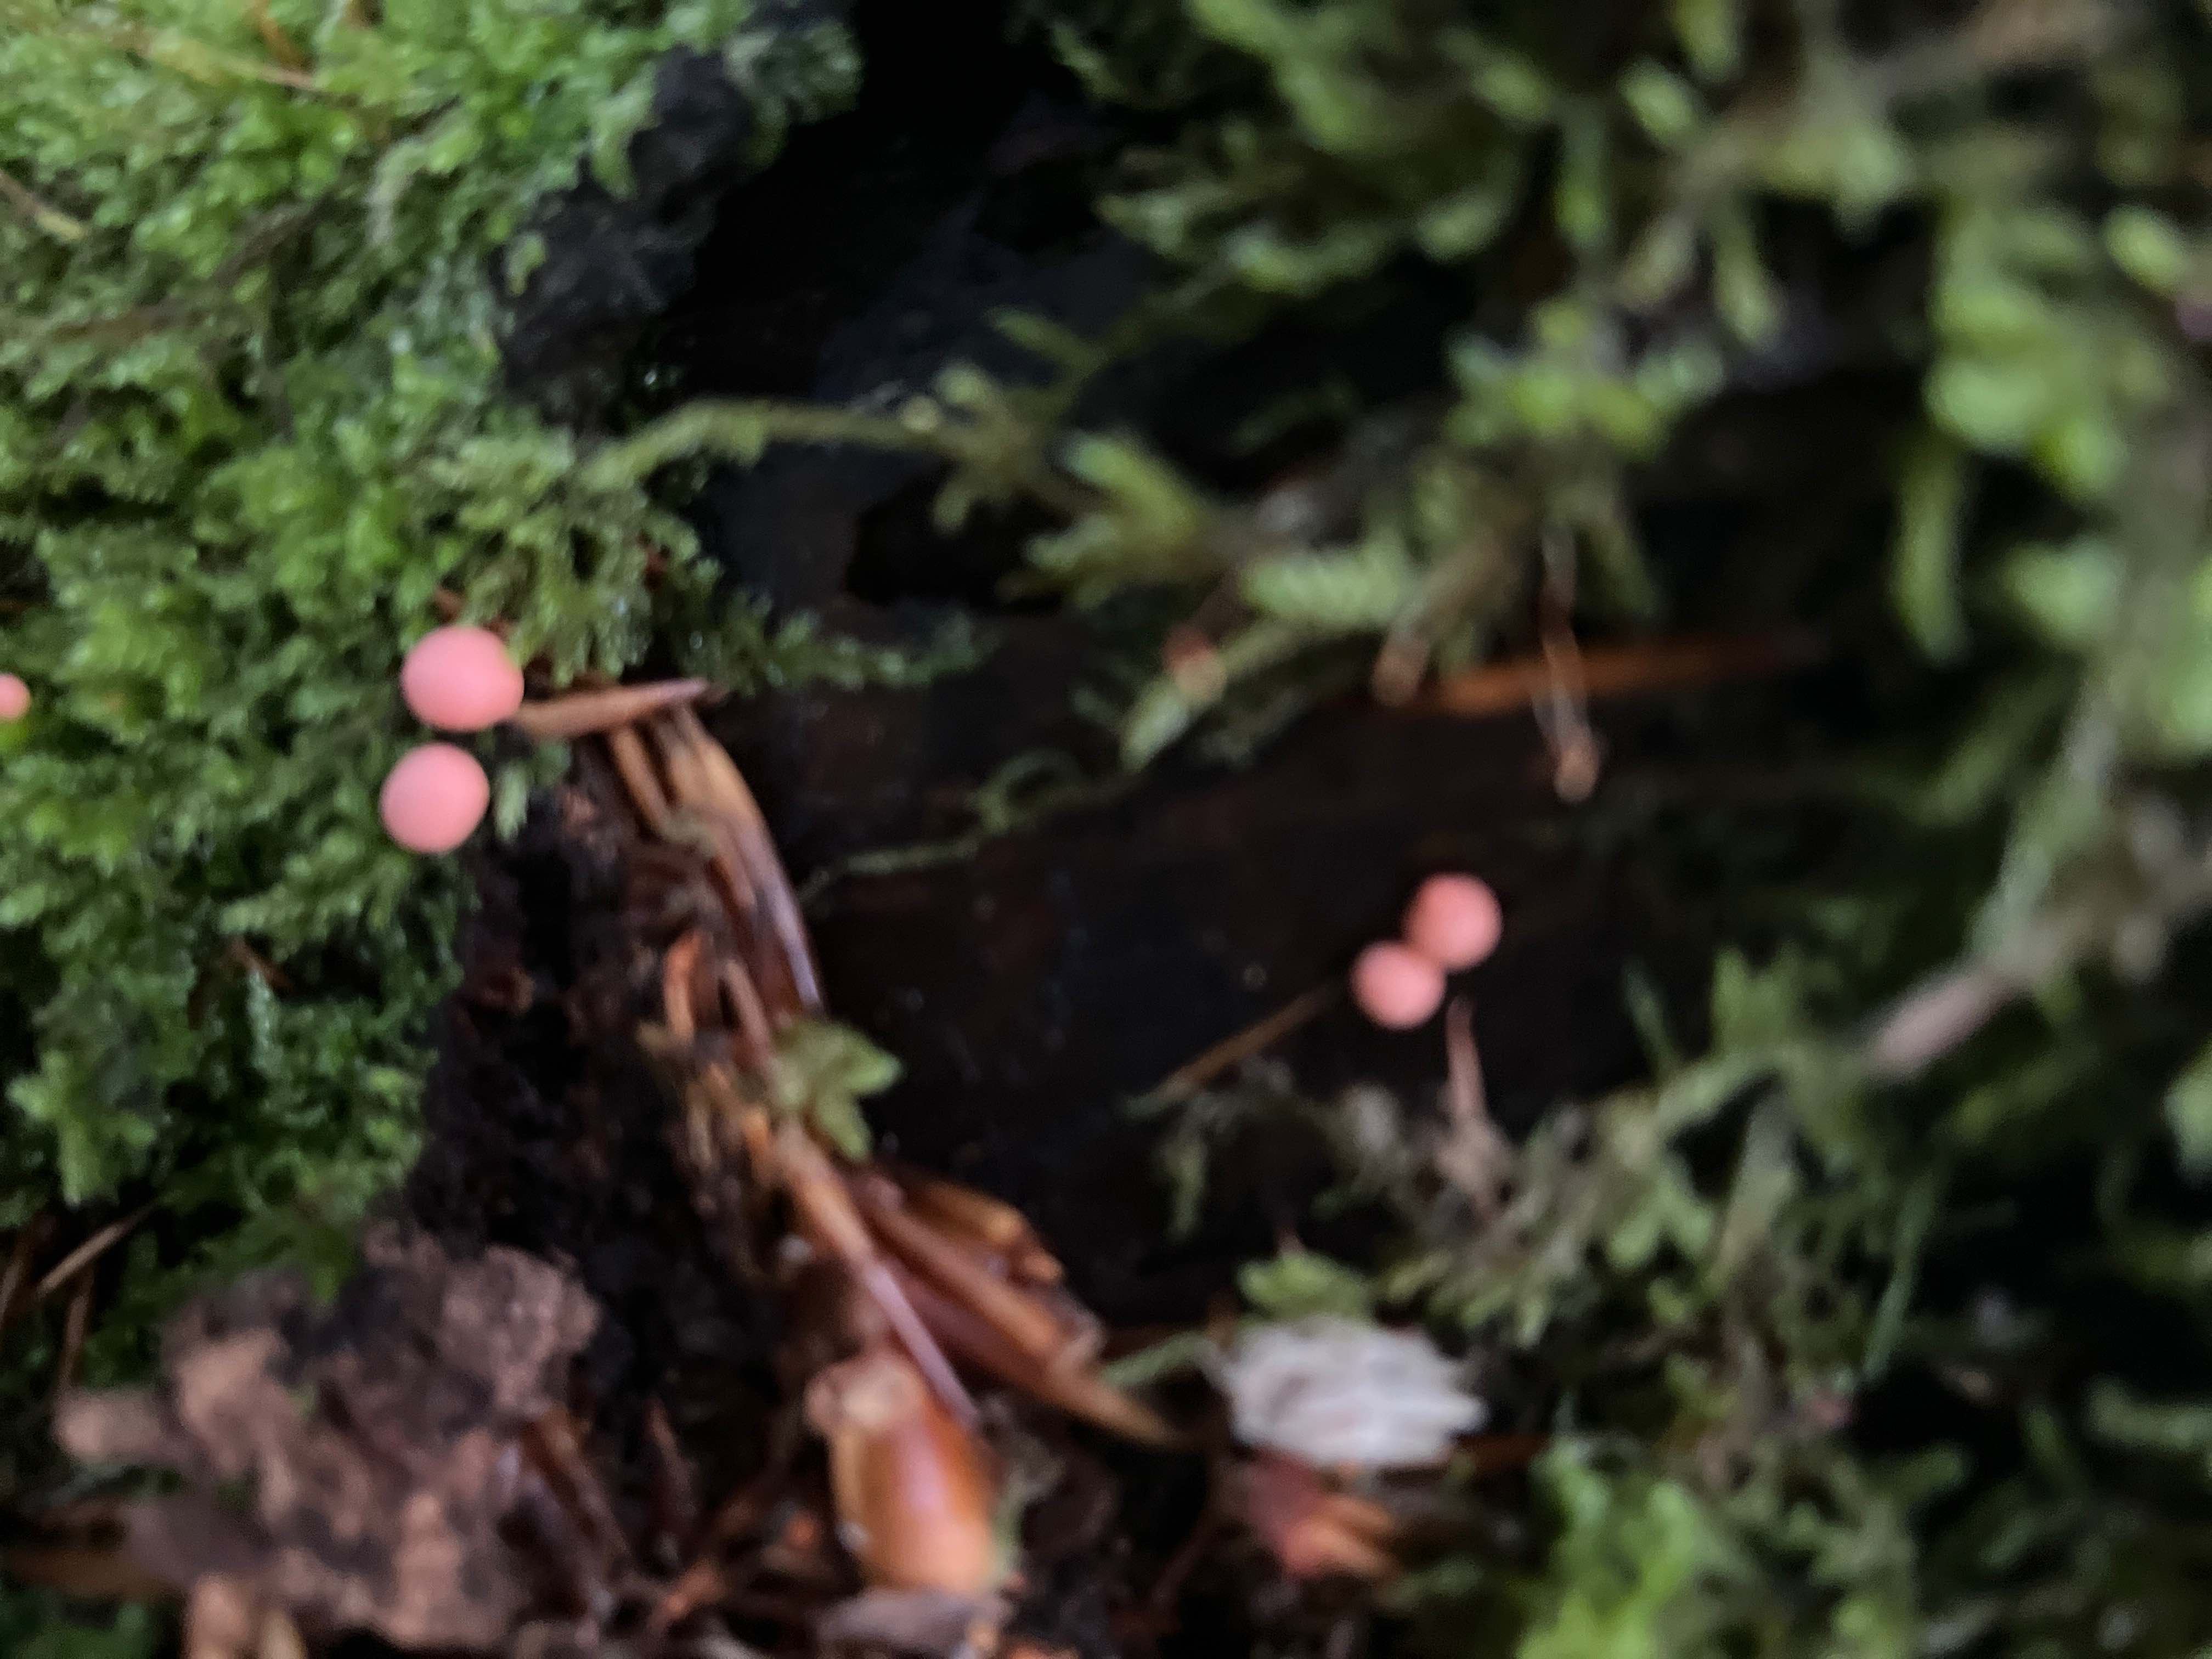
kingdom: Protozoa
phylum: Mycetozoa
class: Myxomycetes
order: Cribrariales
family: Tubiferaceae
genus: Lycogala
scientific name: Lycogala epidendrum
